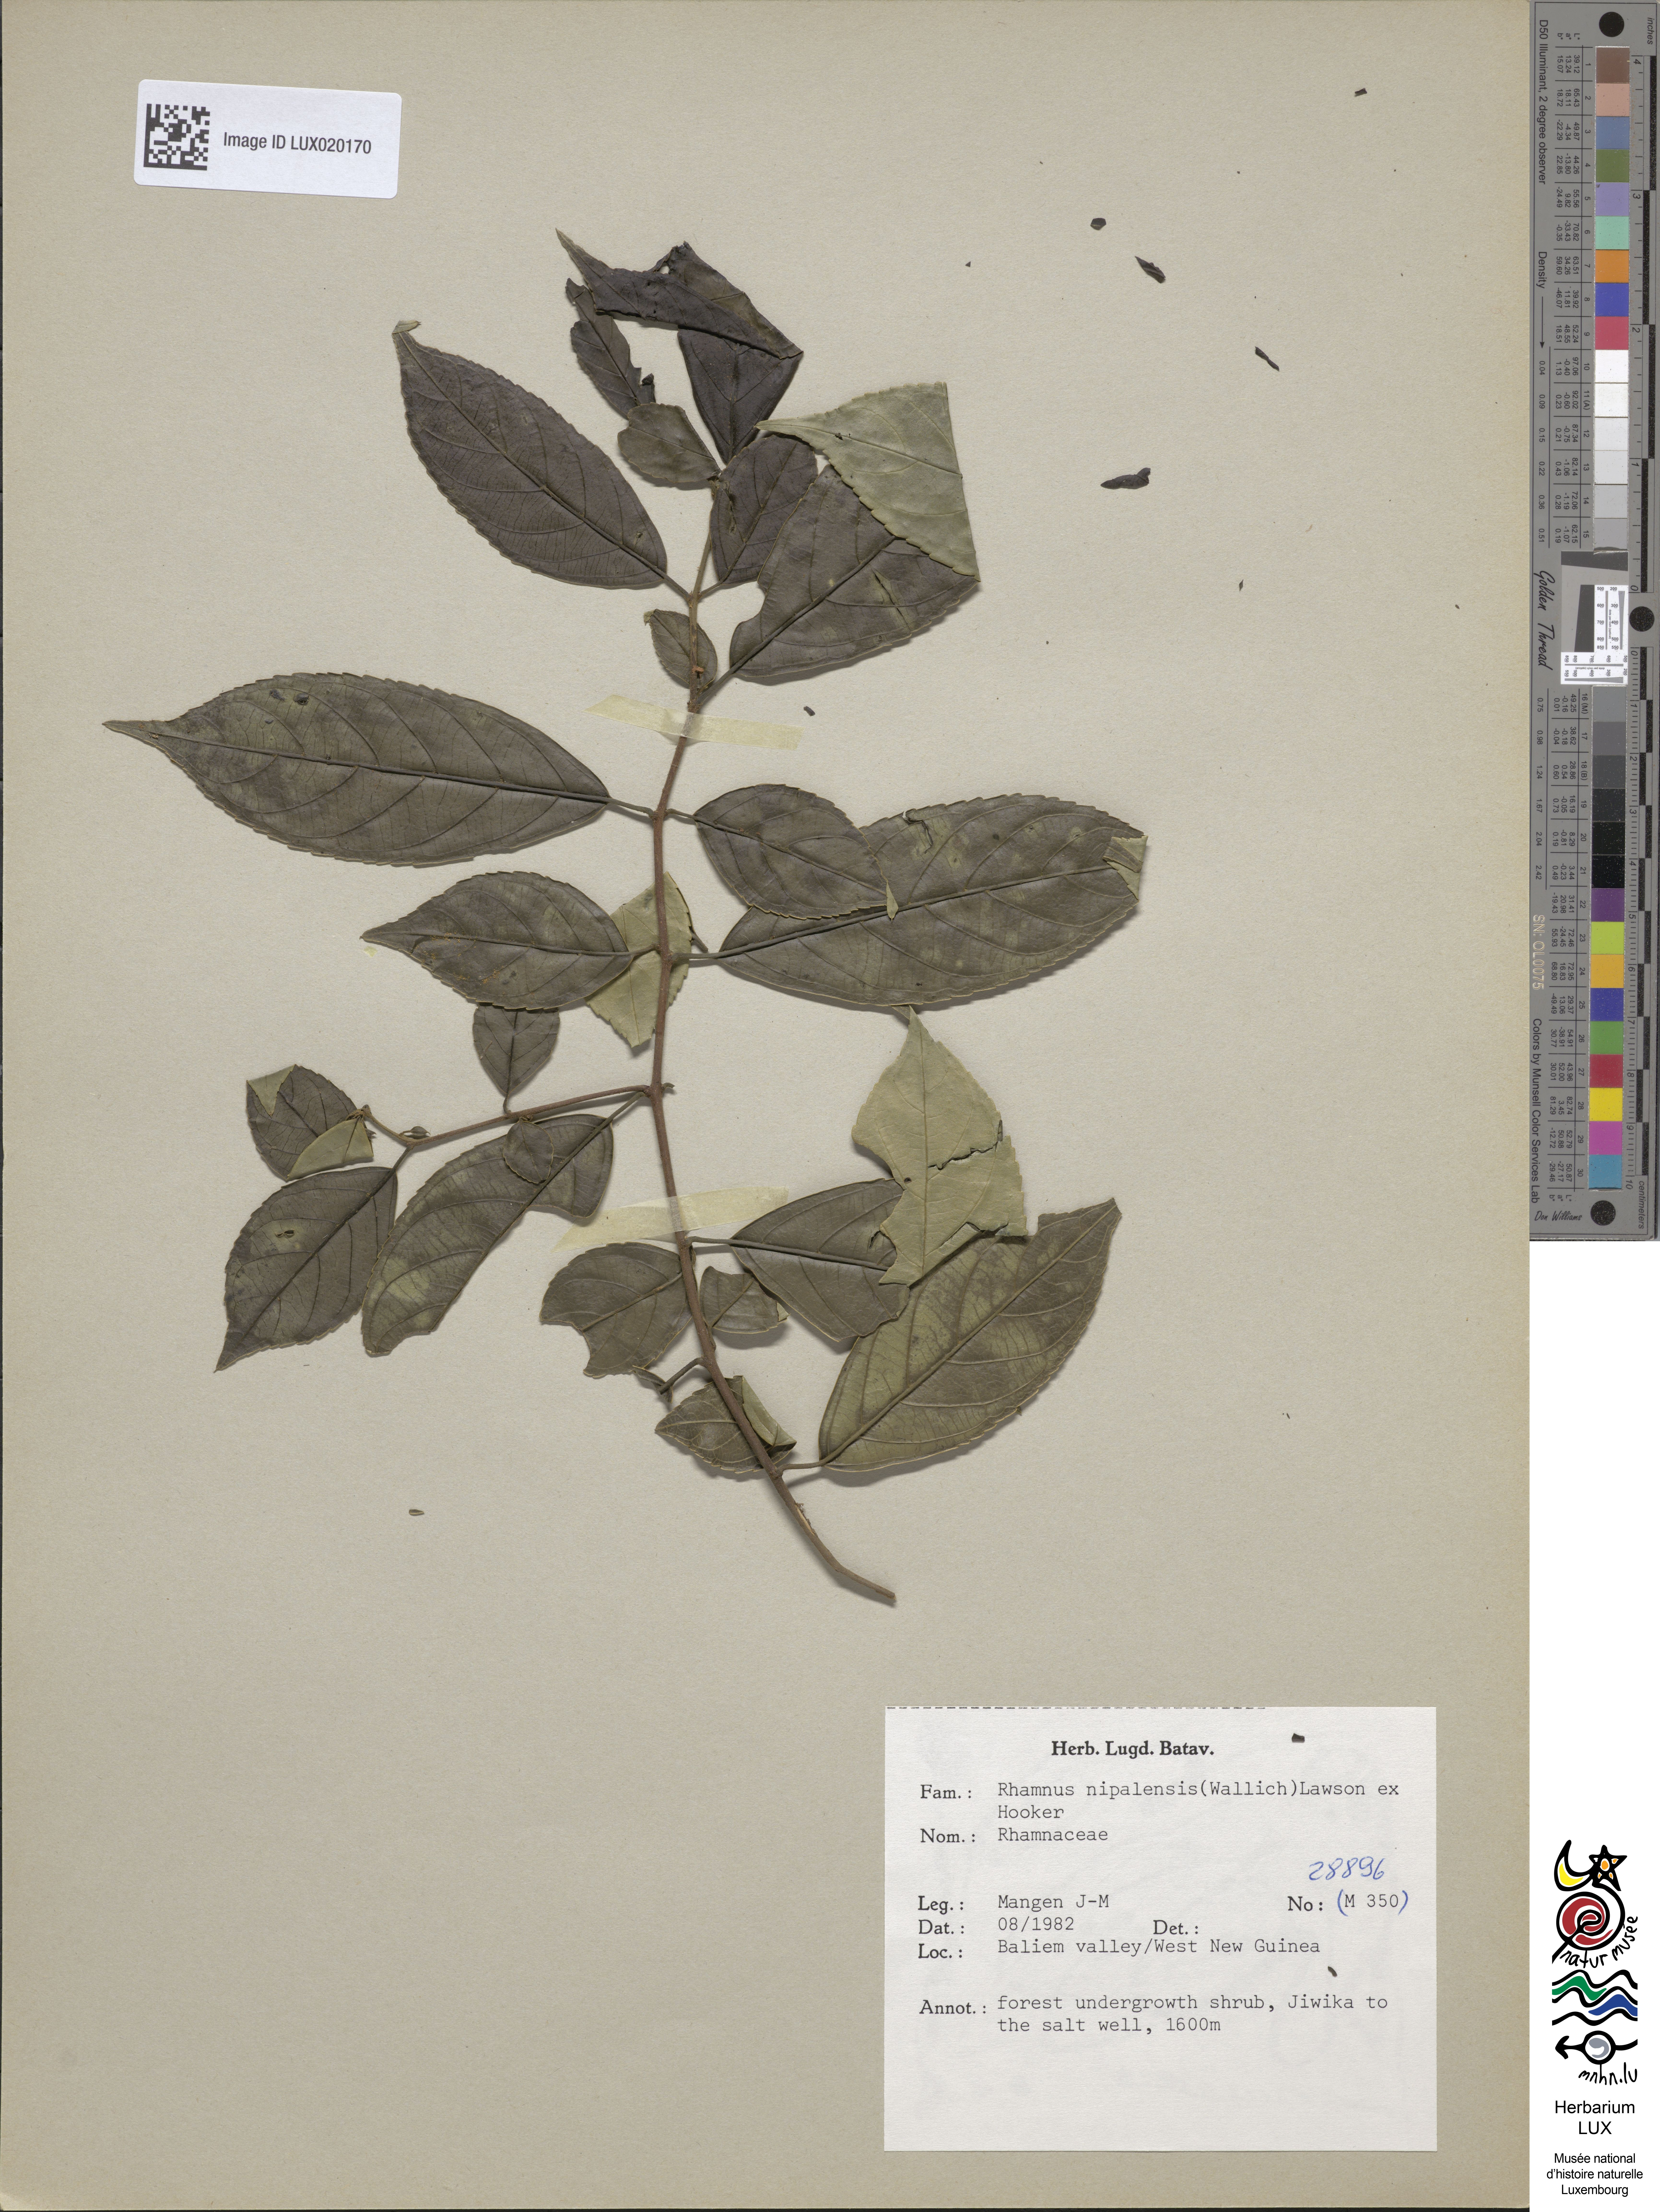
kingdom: Plantae
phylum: Tracheophyta
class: Magnoliopsida
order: Rosales
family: Rhamnaceae
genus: Rhamnus
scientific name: Rhamnus
